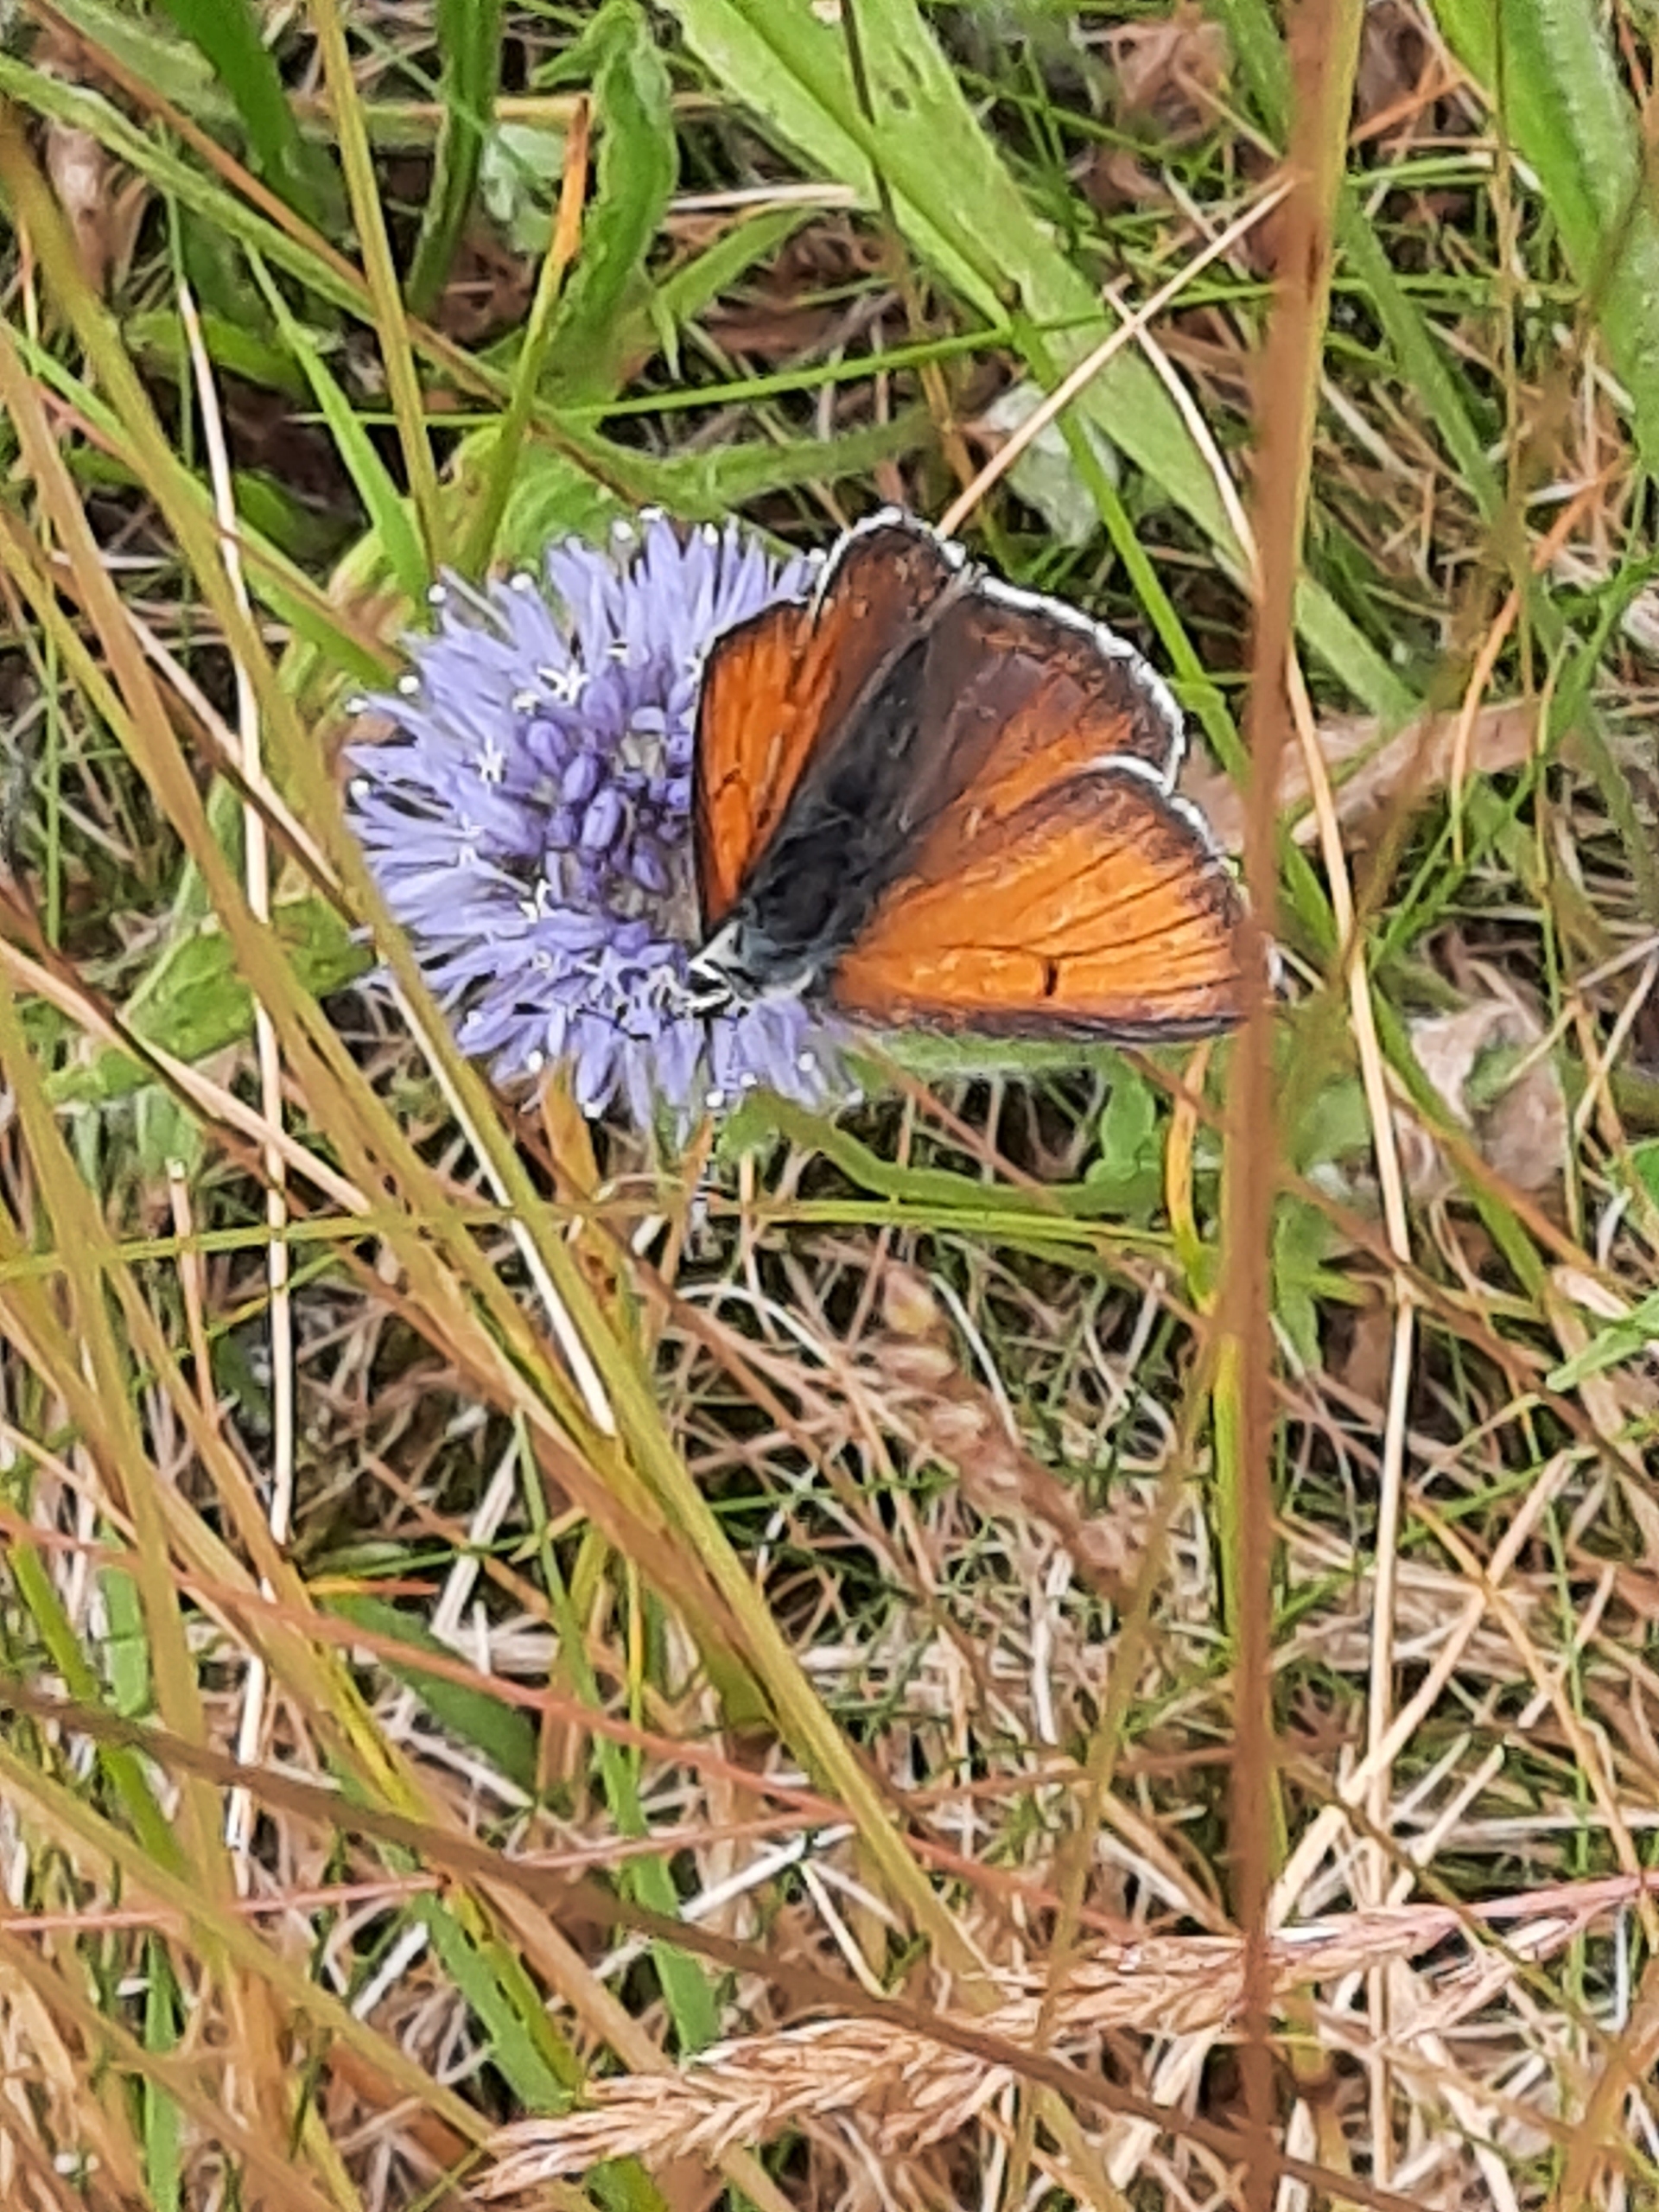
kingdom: Animalia
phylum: Arthropoda
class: Insecta
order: Lepidoptera
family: Lycaenidae
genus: Palaeochrysophanus
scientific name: Palaeochrysophanus hippothoe
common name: Violetrandet ildfugl
